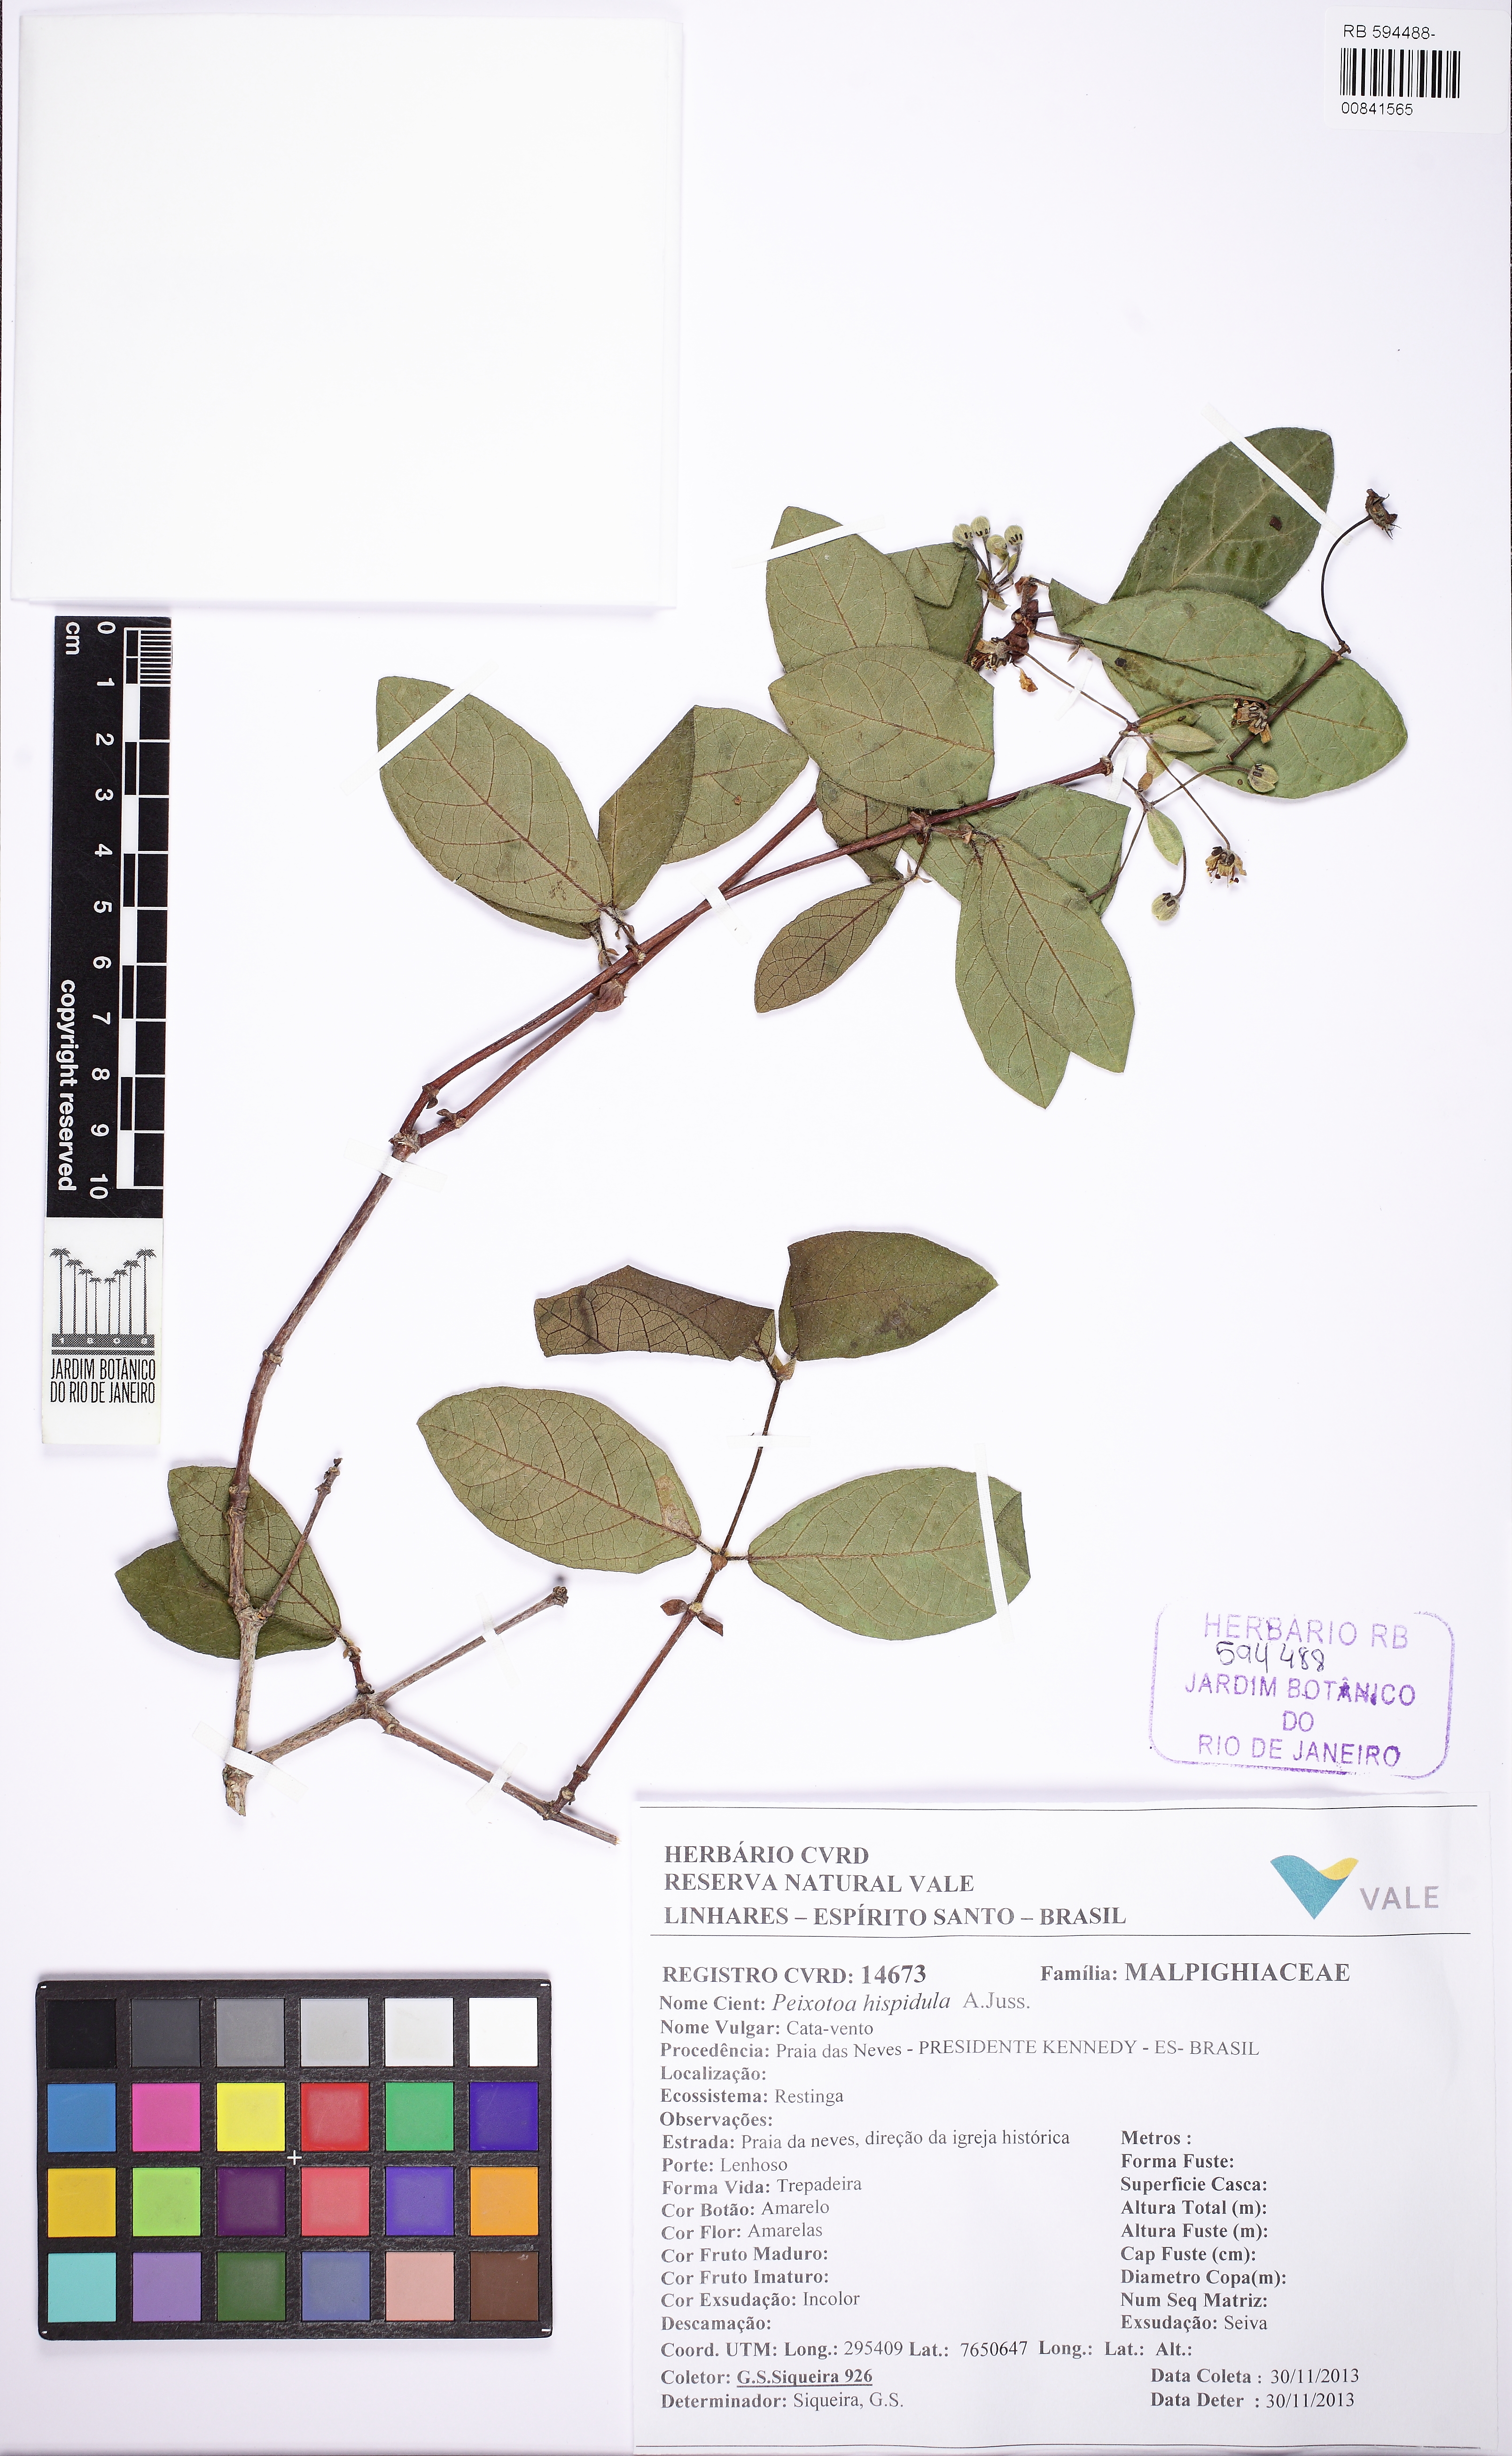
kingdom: Plantae
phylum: Tracheophyta
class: Magnoliopsida
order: Malpighiales
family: Malpighiaceae
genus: Peixotoa
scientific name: Peixotoa hispidula
